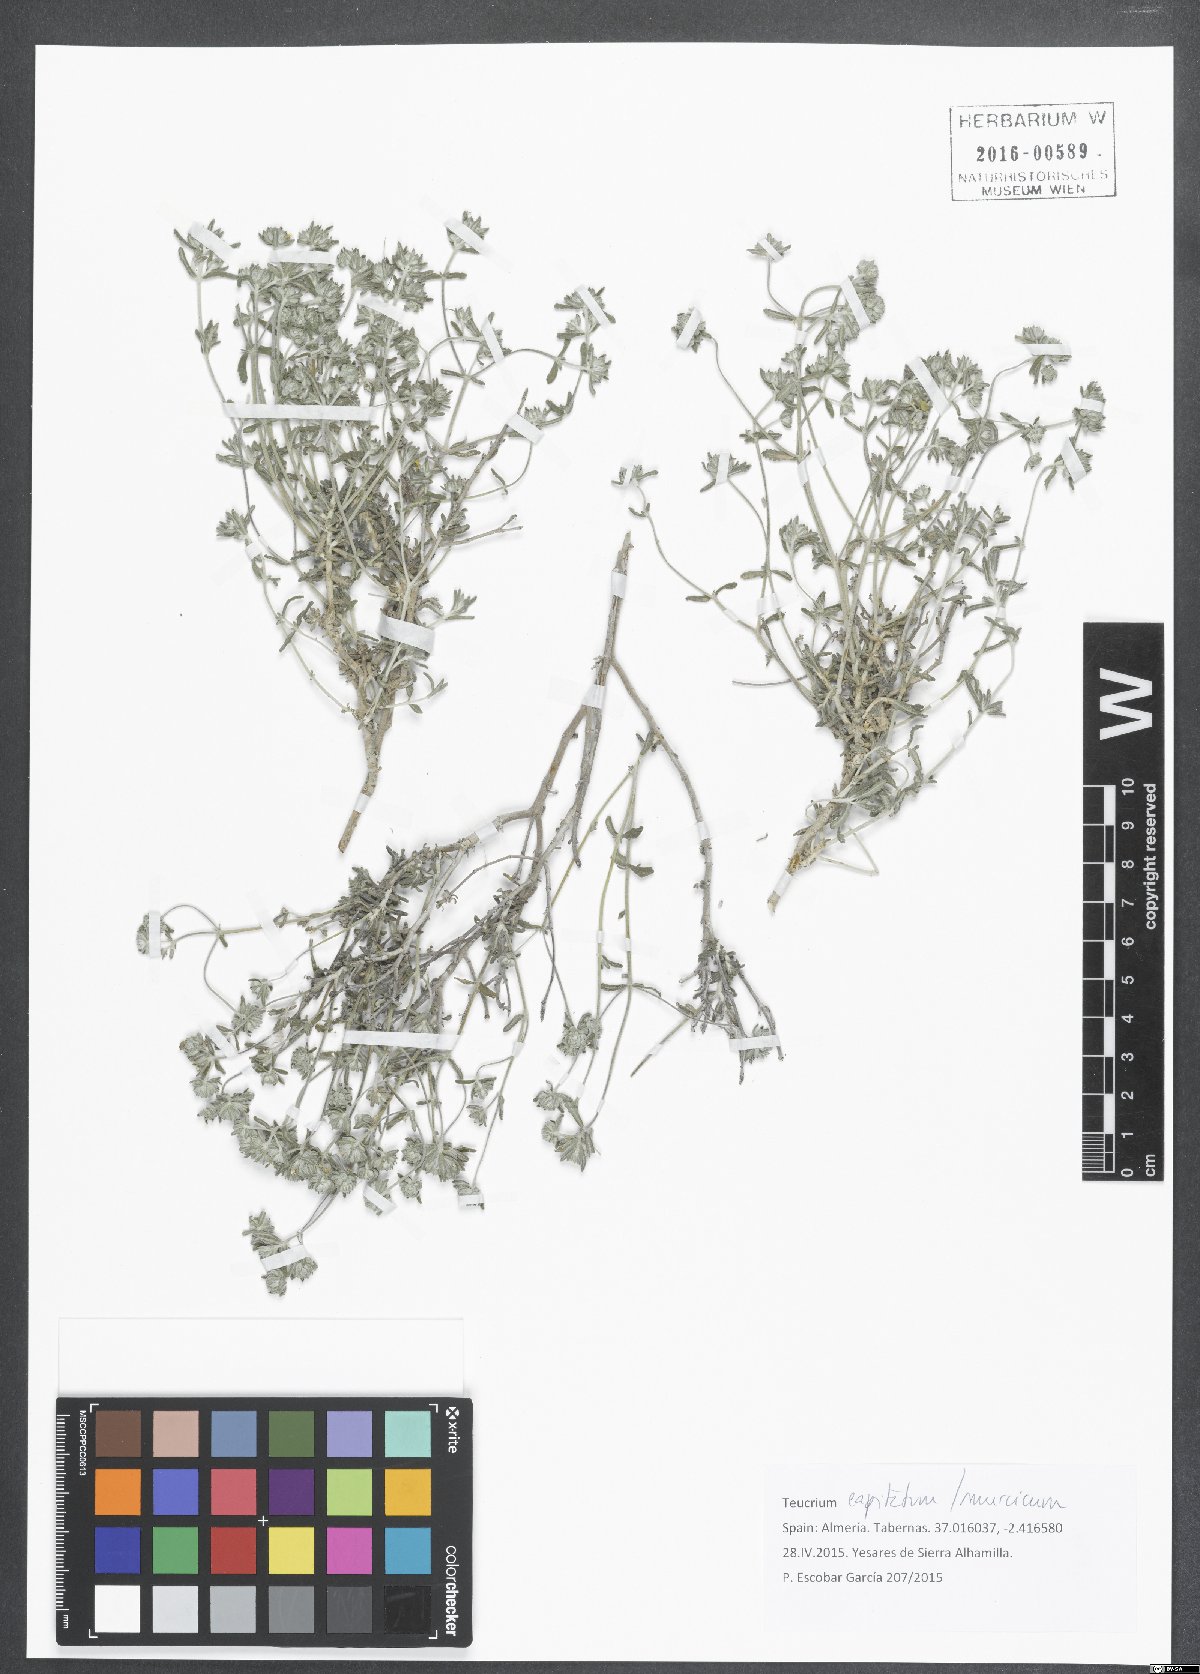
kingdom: Plantae
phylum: Tracheophyta
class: Magnoliopsida
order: Lamiales
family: Lamiaceae
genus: Teucrium
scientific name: Teucrium capitatum
